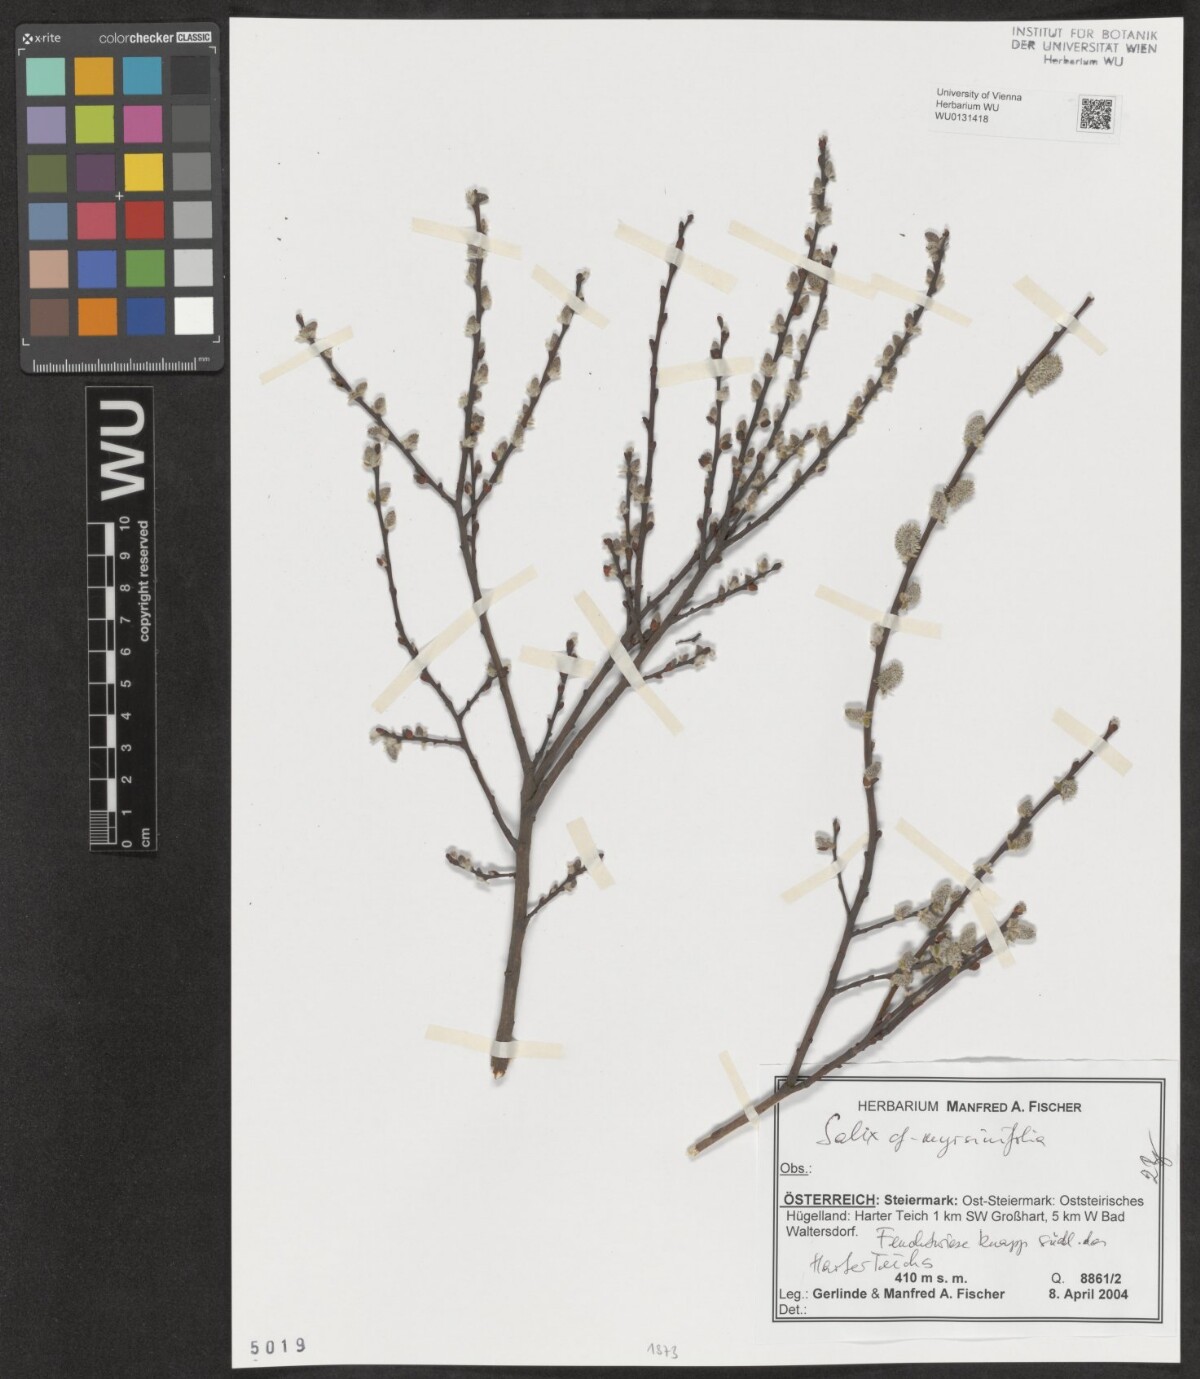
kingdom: Plantae
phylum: Tracheophyta
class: Magnoliopsida
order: Malpighiales
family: Salicaceae
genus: Salix
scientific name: Salix myrsinifolia
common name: Dark-leaved willow
